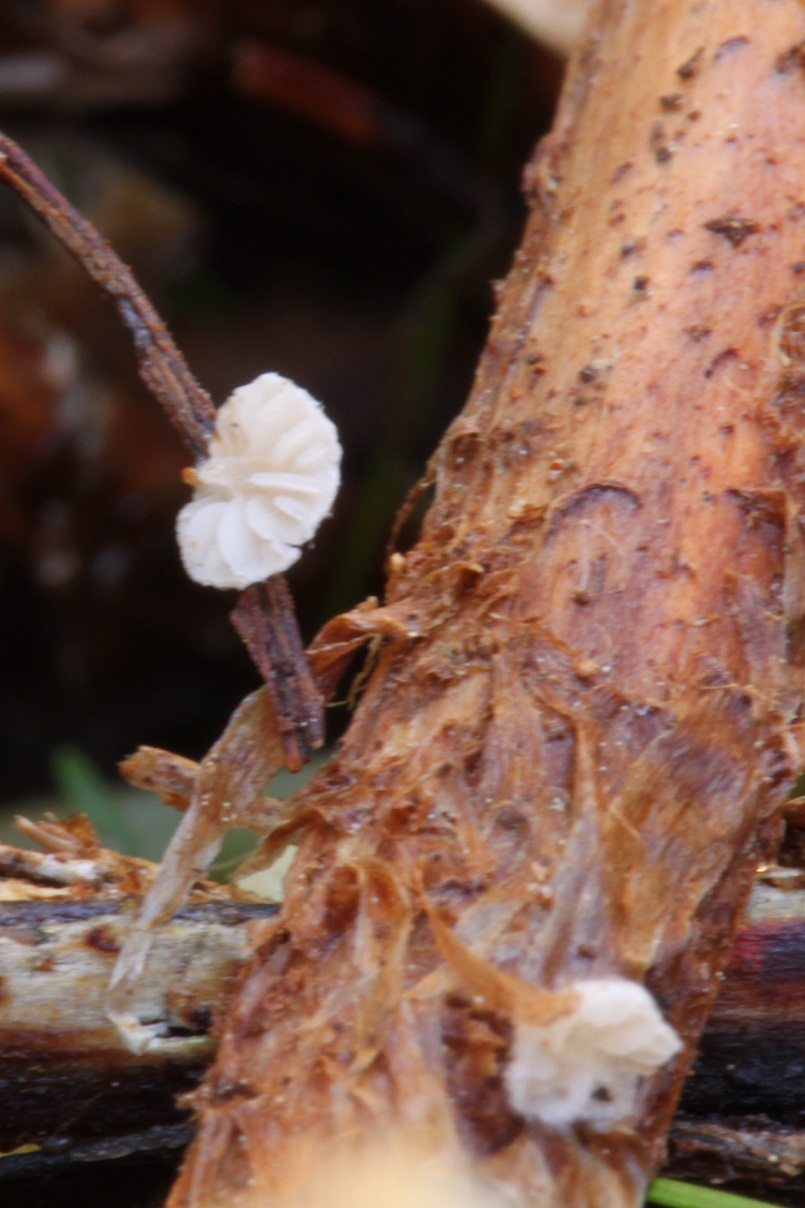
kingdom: Fungi
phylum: Basidiomycota
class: Agaricomycetes
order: Agaricales
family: Entolomataceae
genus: Clitopilus
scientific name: Clitopilus hobsonii
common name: Miller's oysterling
